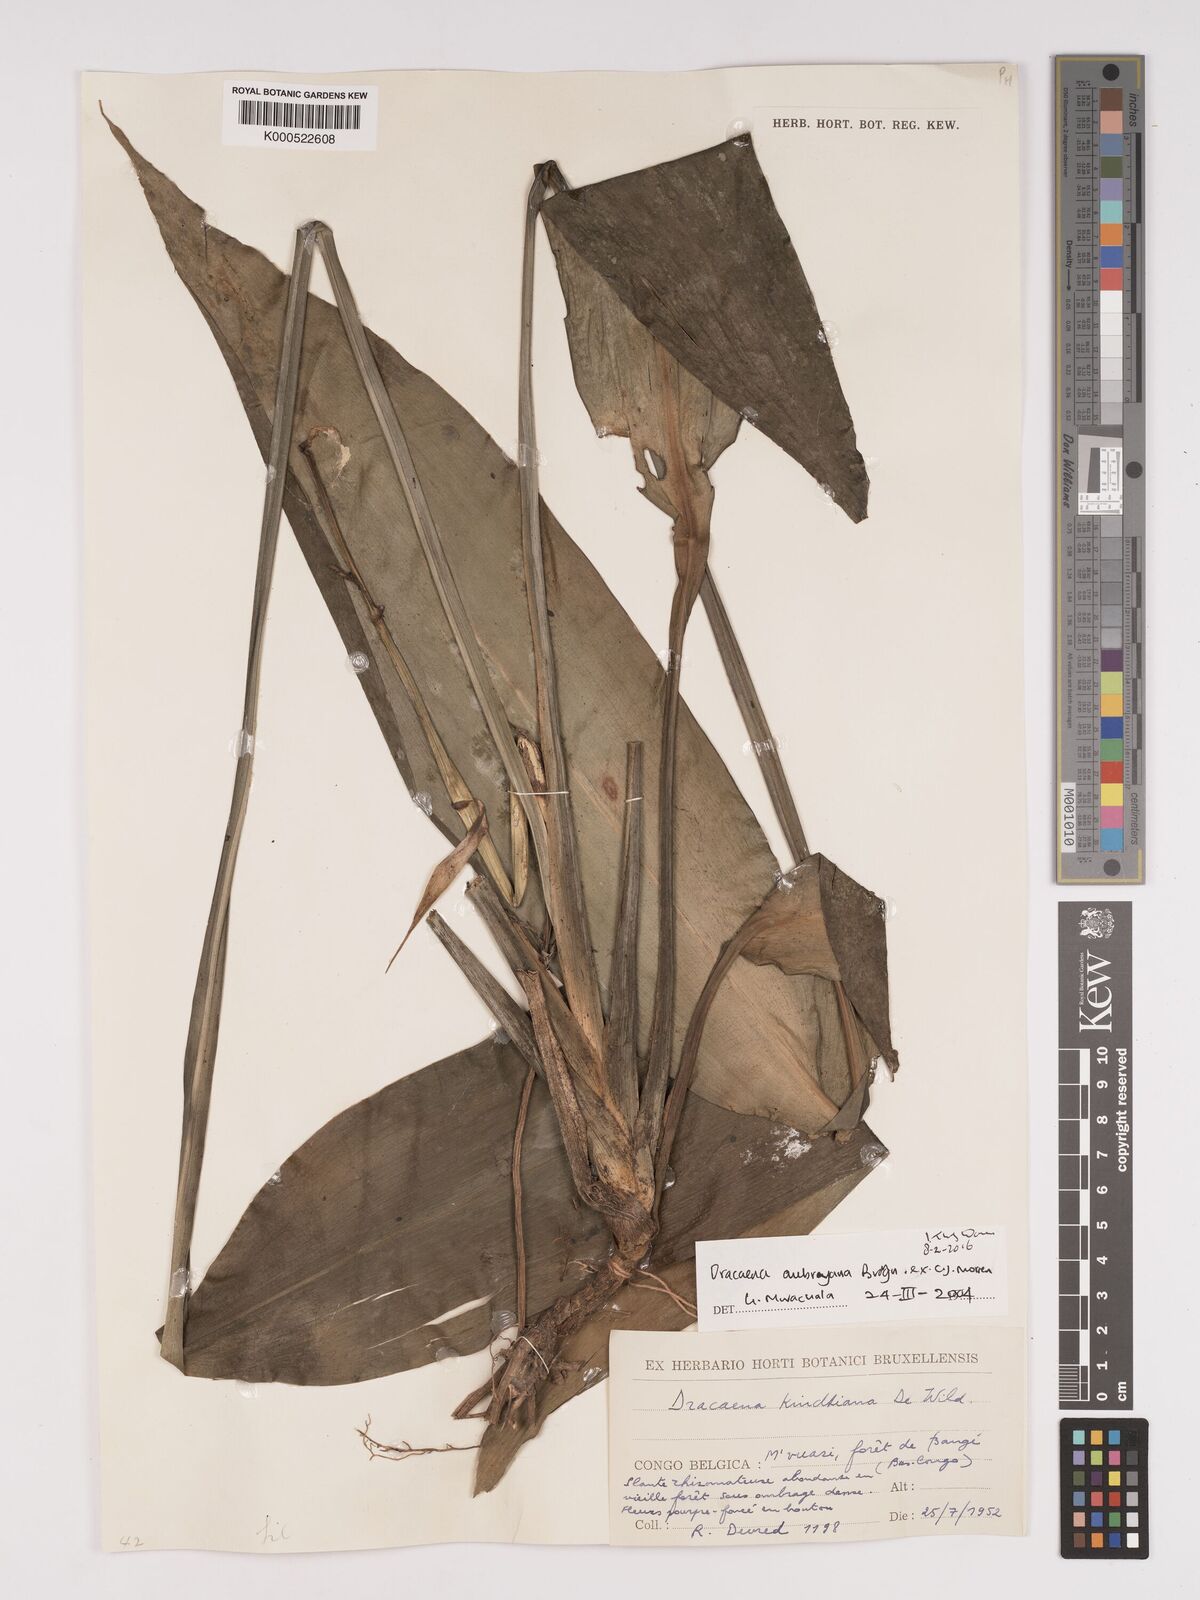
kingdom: Plantae
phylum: Tracheophyta
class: Liliopsida
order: Asparagales
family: Asparagaceae
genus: Dracaena
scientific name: Dracaena aubryana
